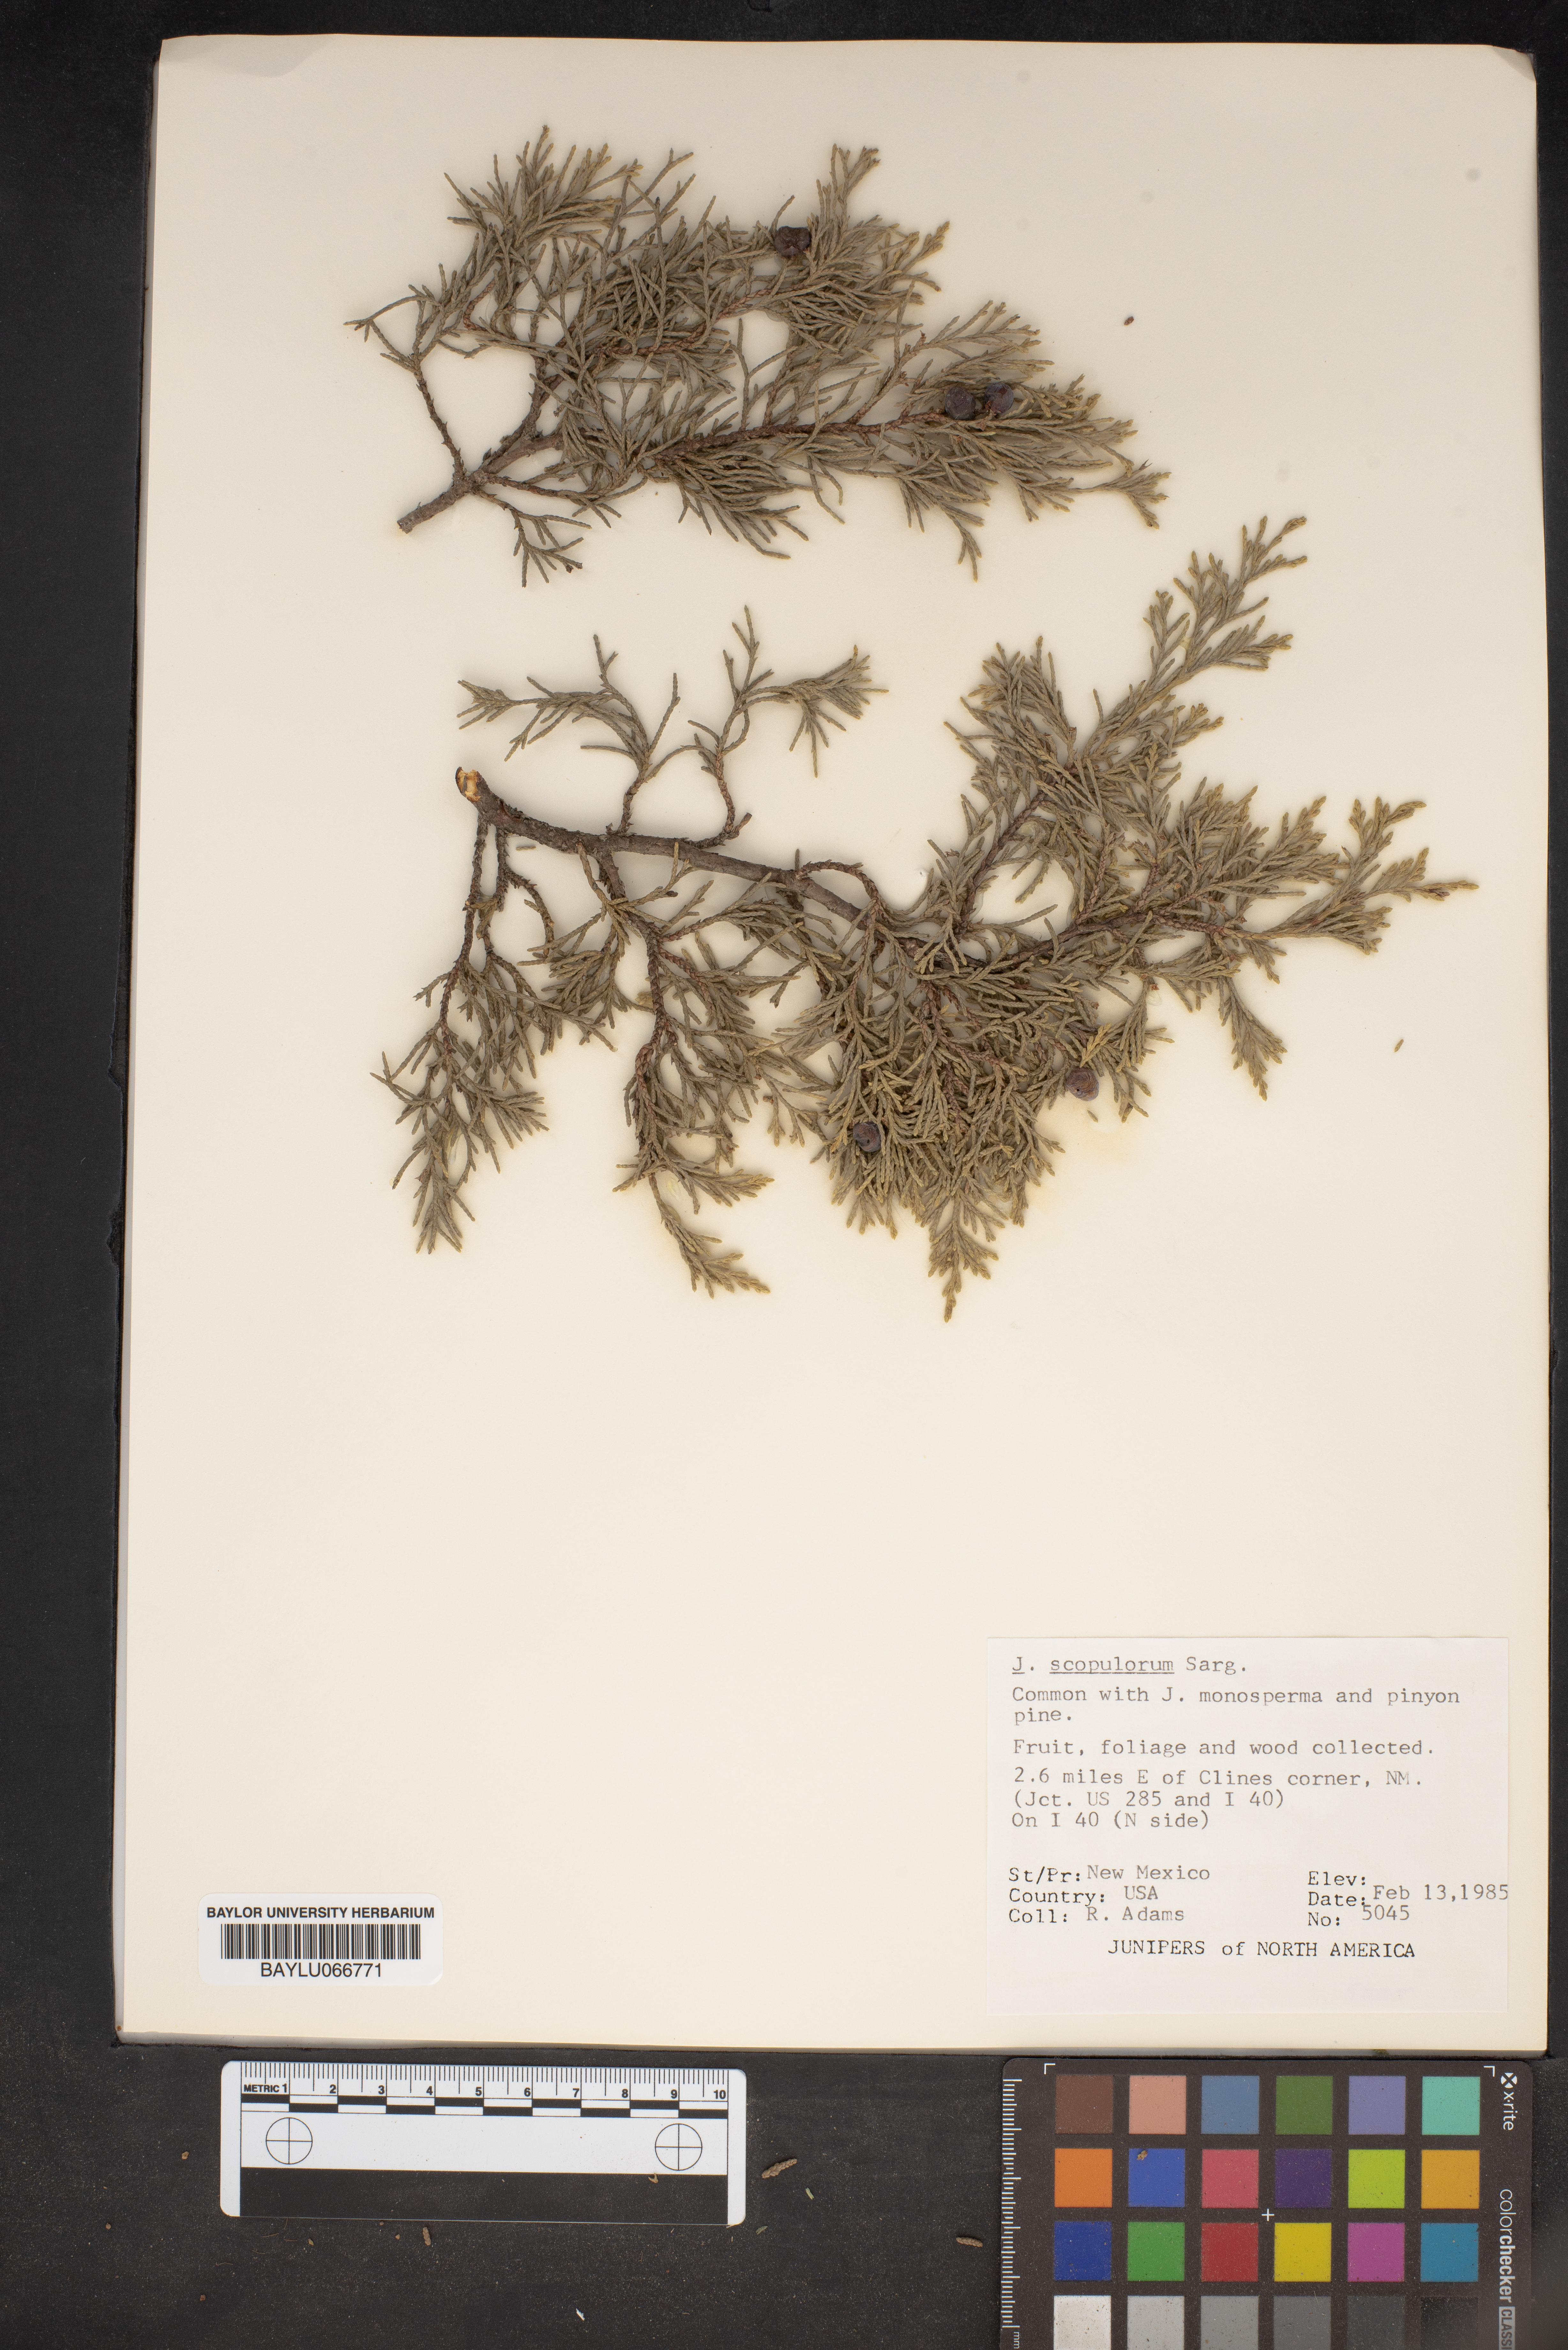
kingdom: Plantae
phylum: Tracheophyta
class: Pinopsida
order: Pinales
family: Cupressaceae
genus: Juniperus
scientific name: Juniperus scopulorum
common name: Rocky mountain juniper
